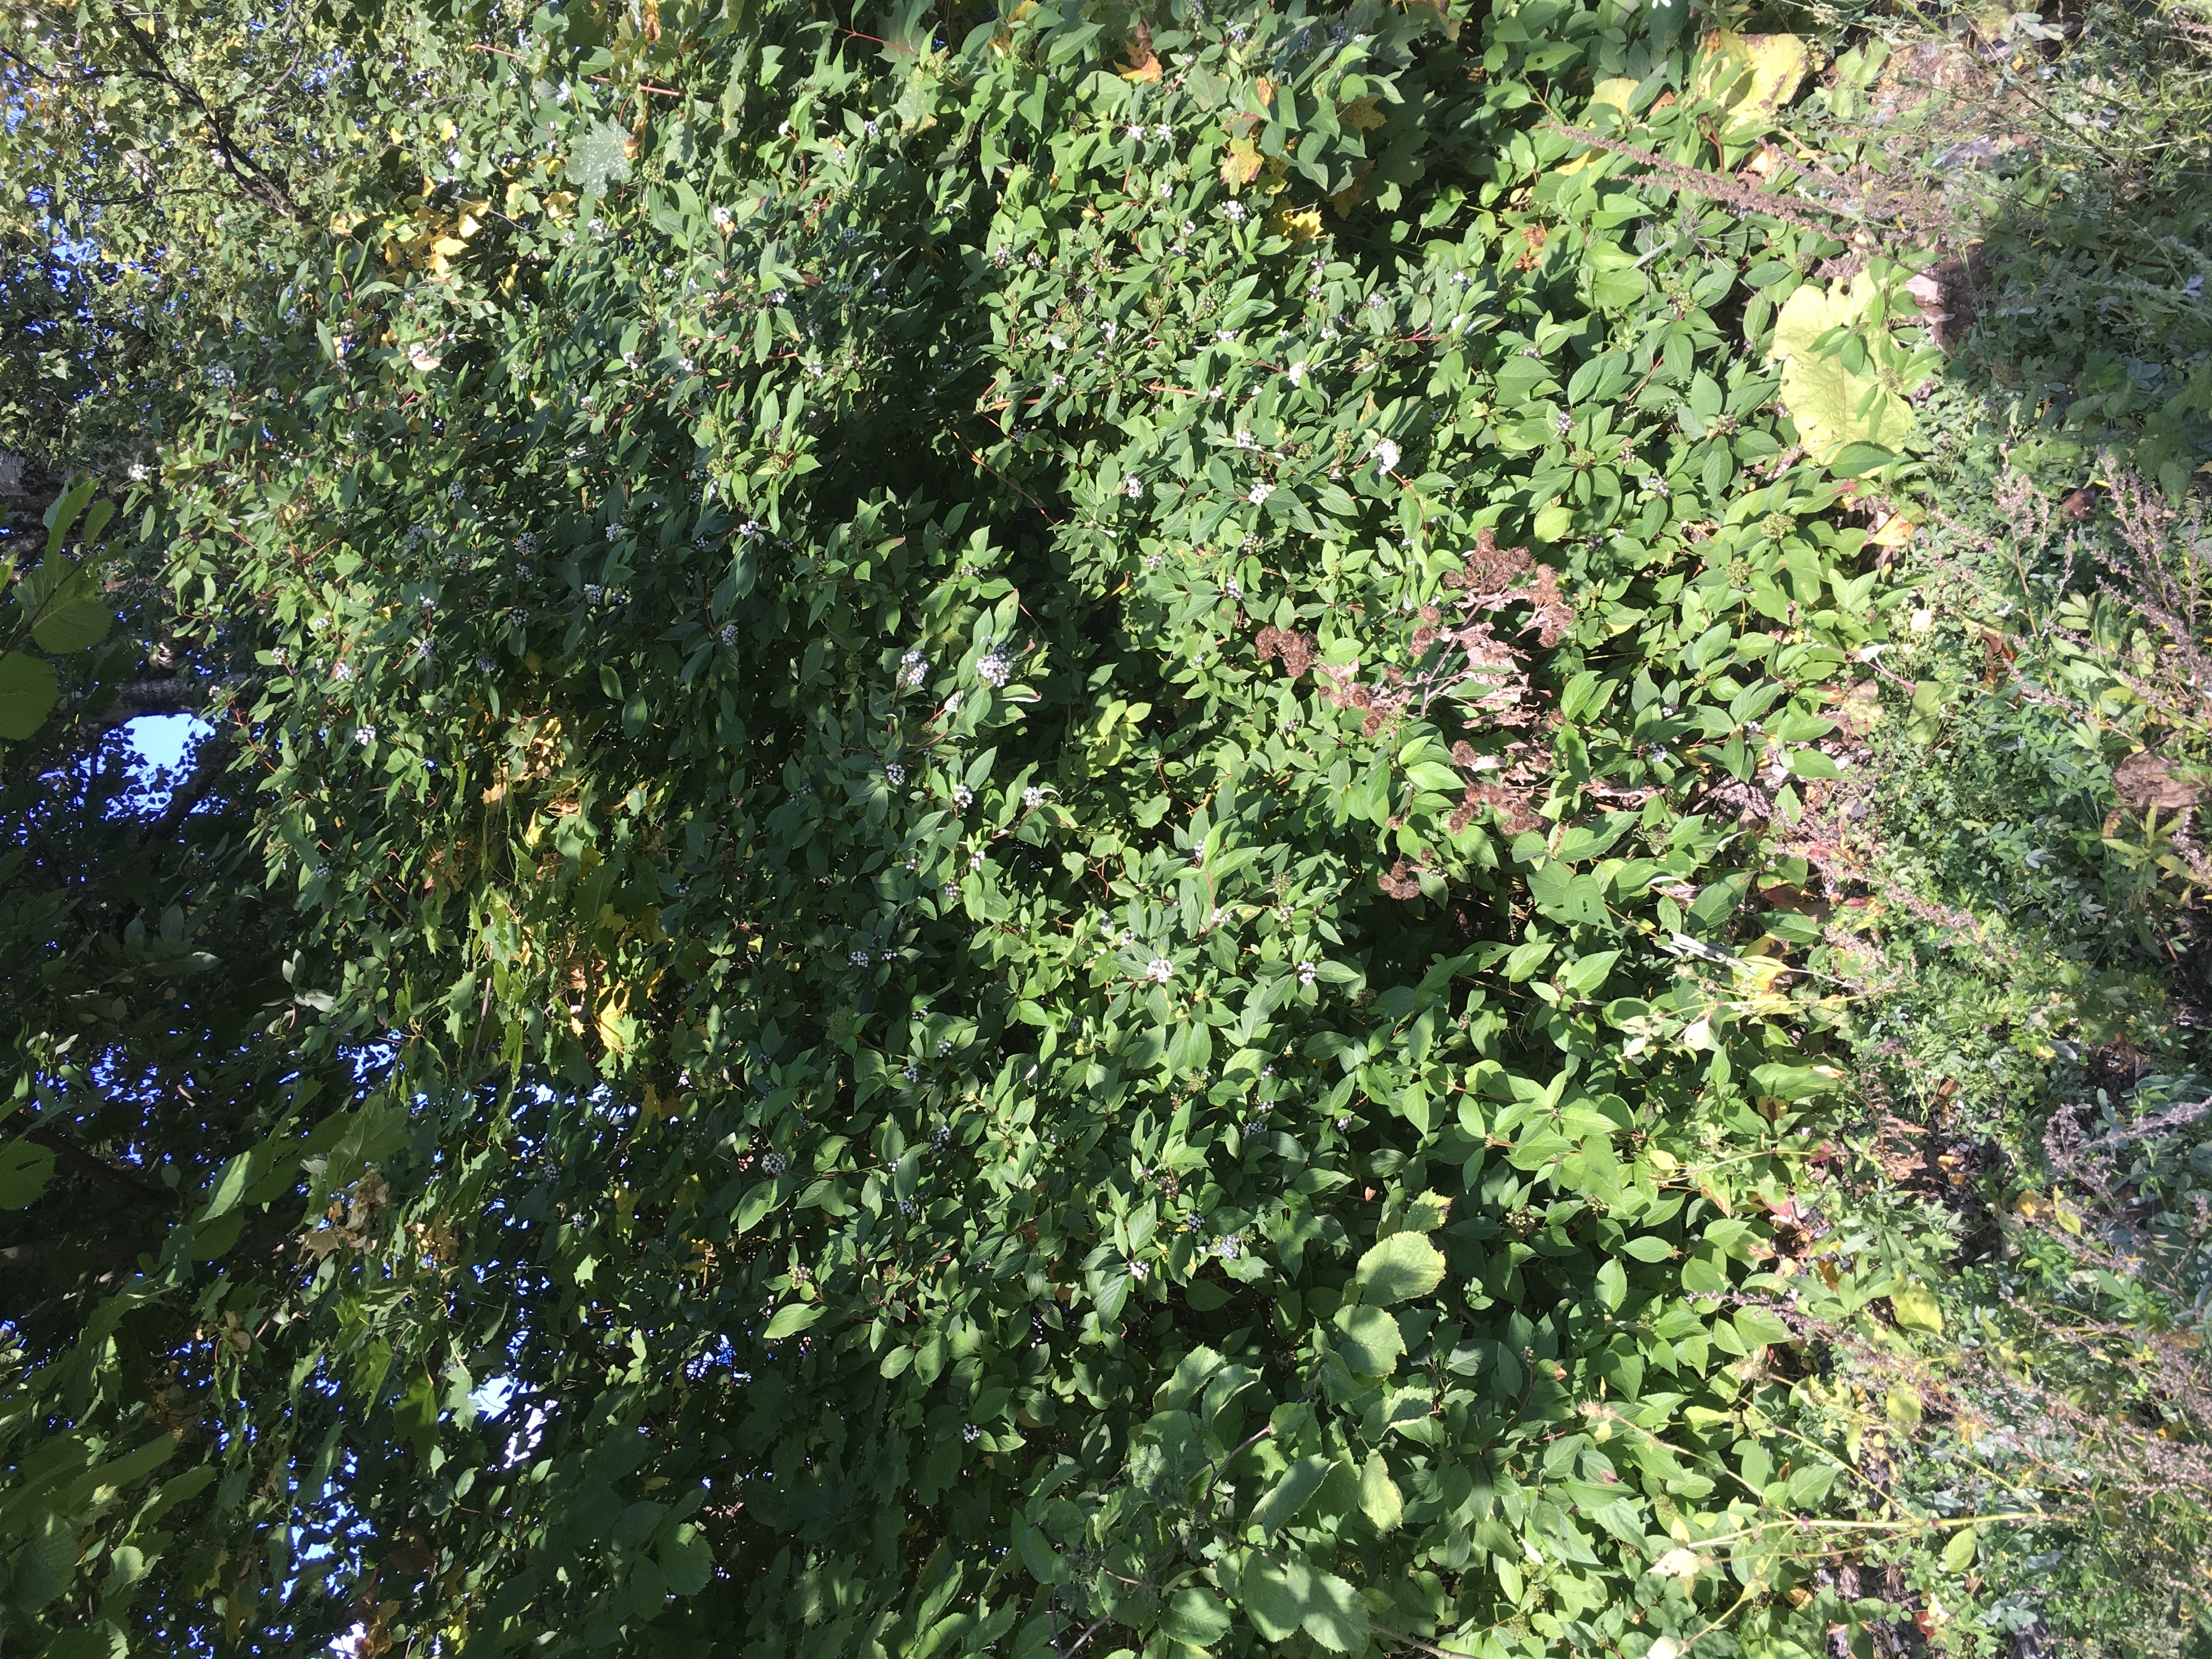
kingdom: Plantae
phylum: Tracheophyta
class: Magnoliopsida
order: Cornales
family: Cornaceae
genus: Cornus
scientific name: Cornus sericea
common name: alaskakornell
